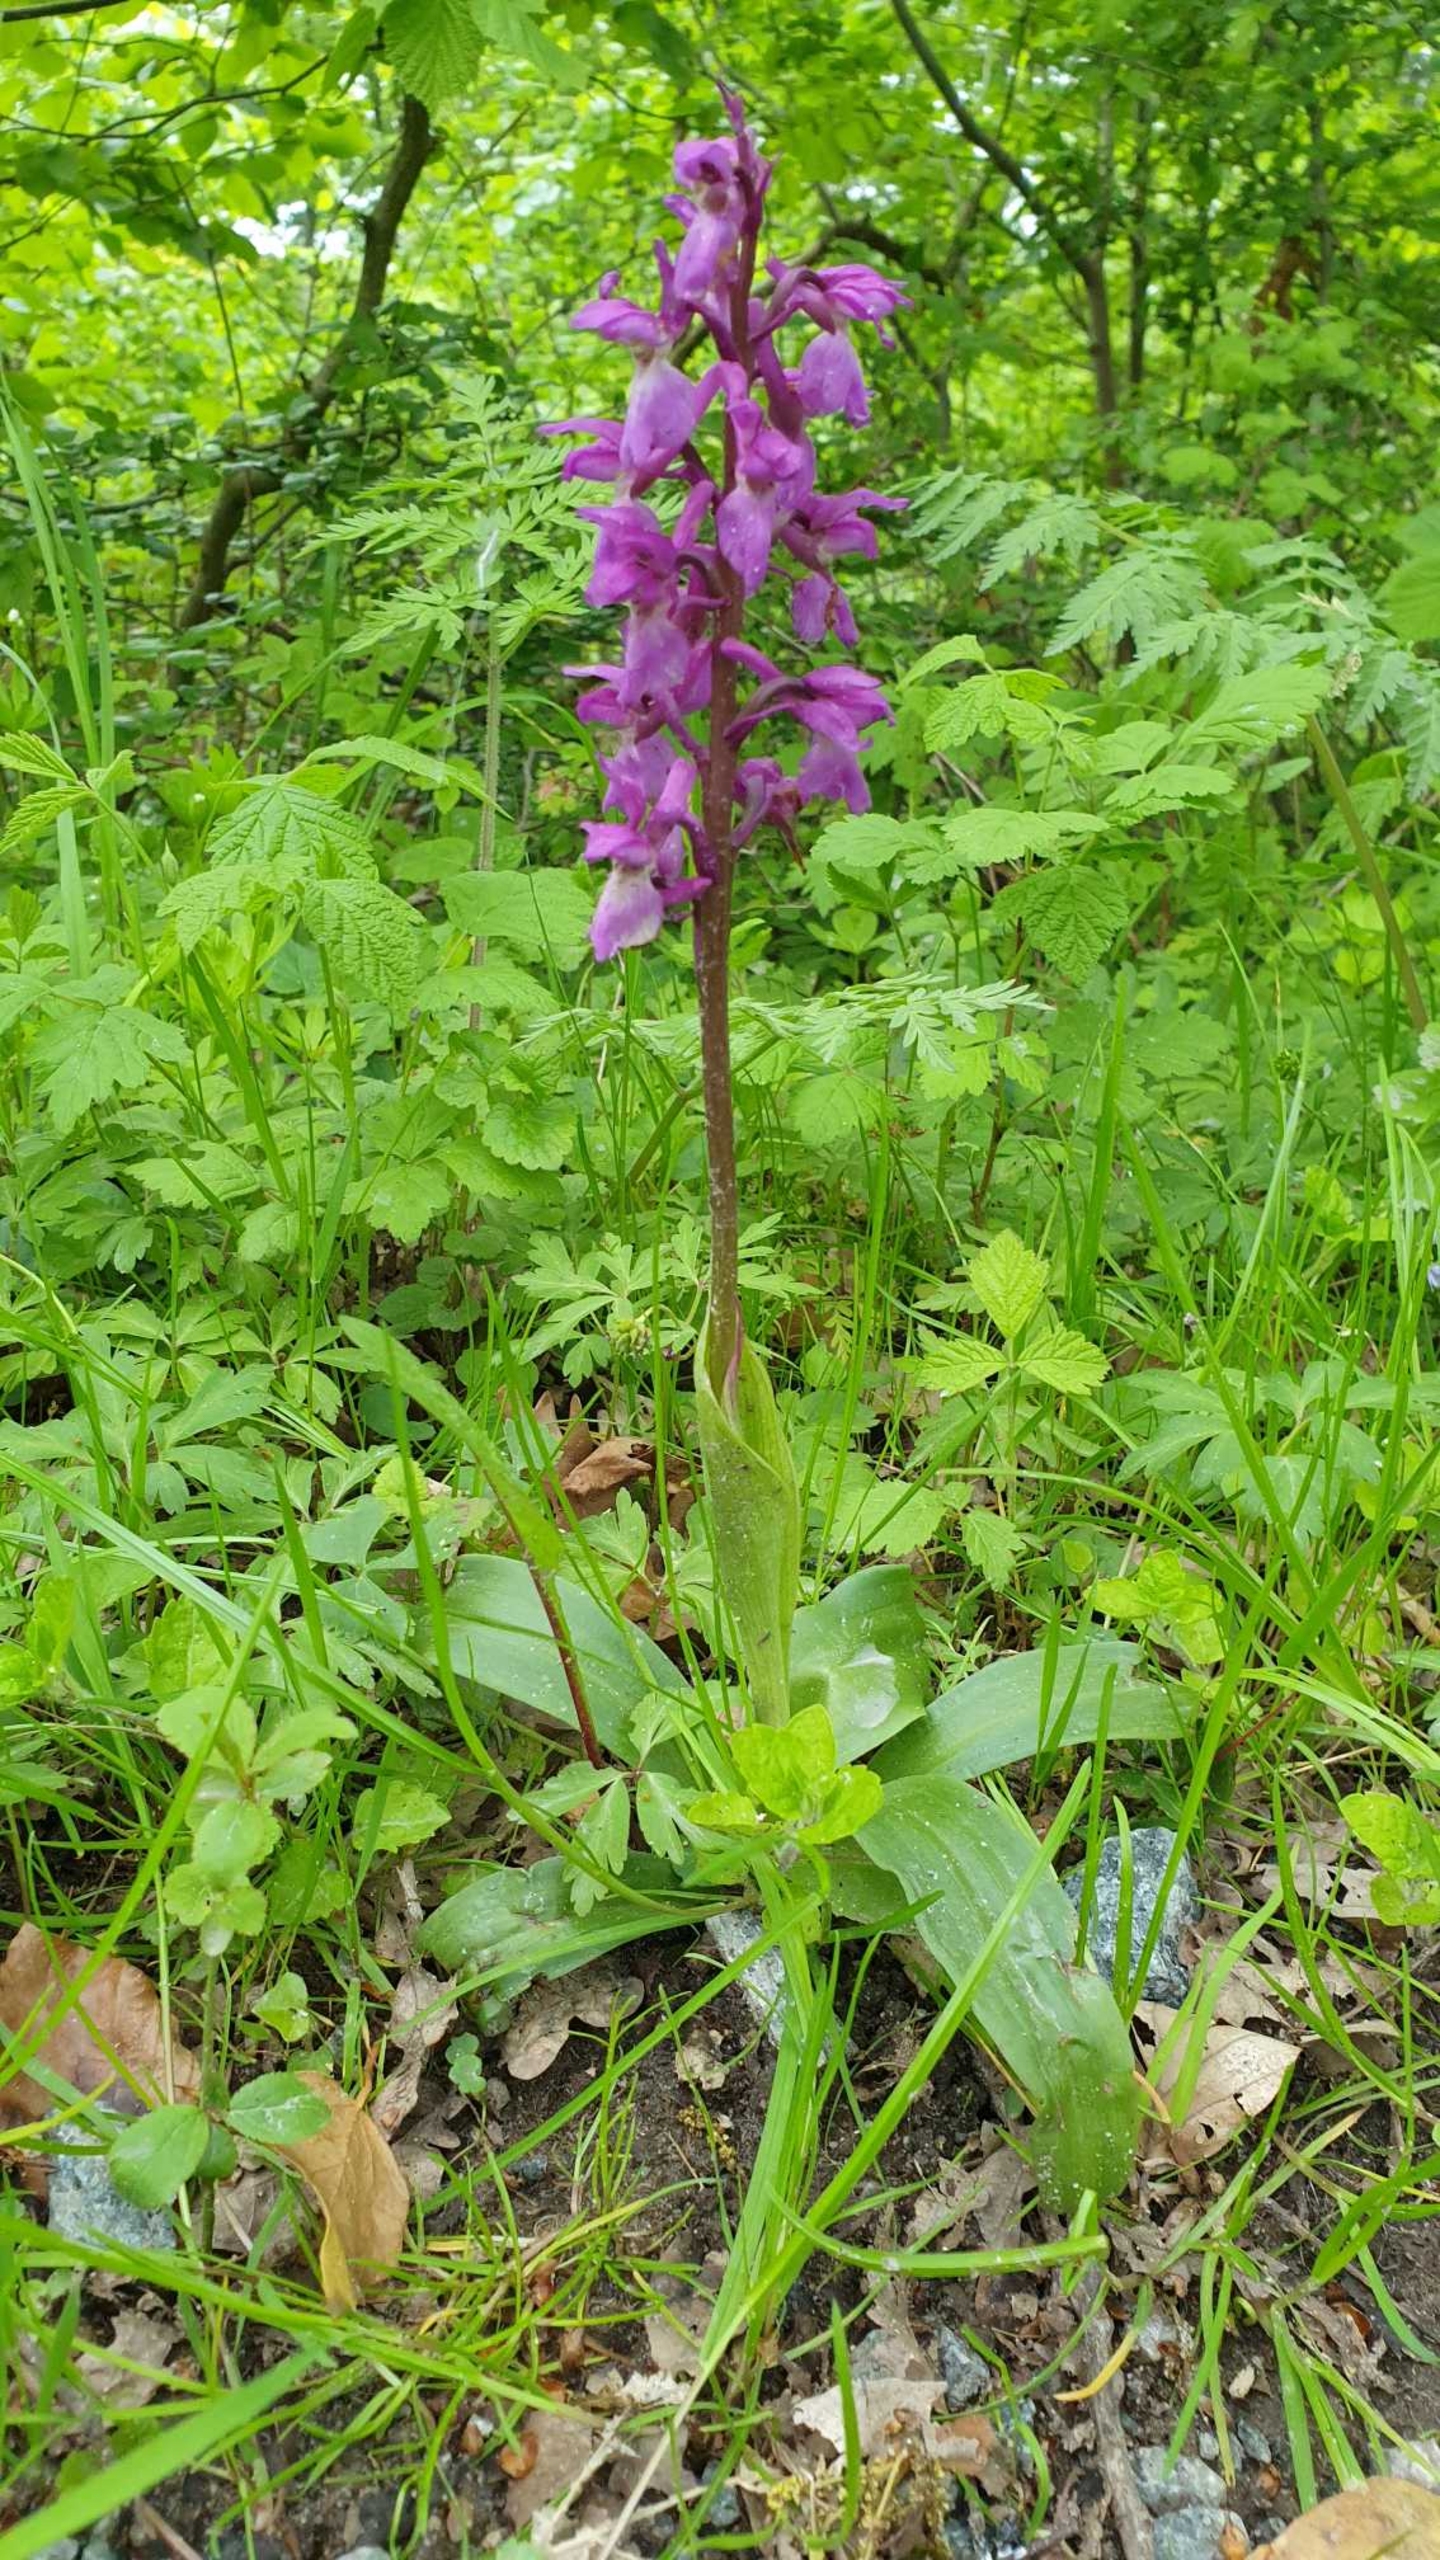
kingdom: Plantae
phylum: Tracheophyta
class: Liliopsida
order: Asparagales
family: Orchidaceae
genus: Orchis
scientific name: Orchis mascula
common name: Tyndakset gøgeurt
